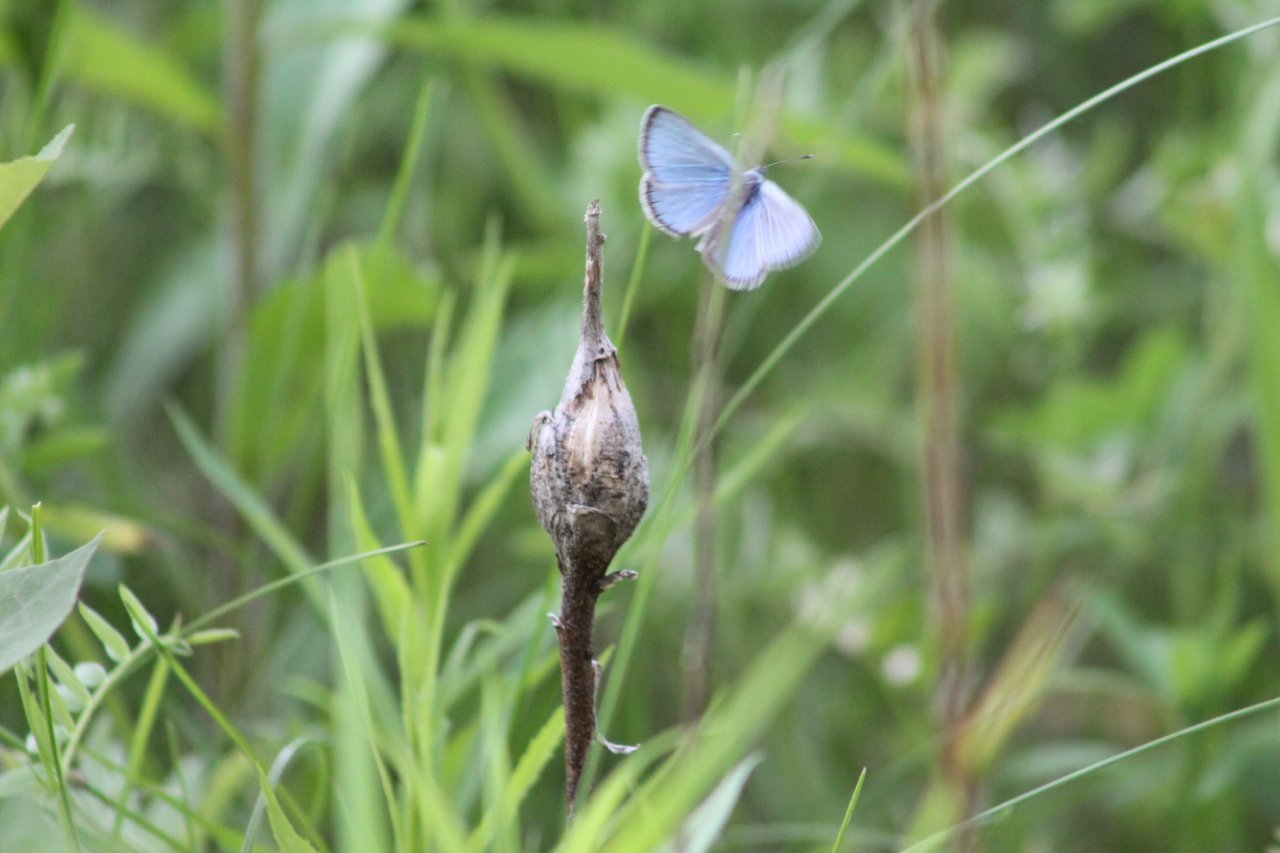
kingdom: Animalia
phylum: Arthropoda
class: Insecta
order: Lepidoptera
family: Lycaenidae
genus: Glaucopsyche
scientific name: Glaucopsyche lygdamus
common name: Silvery Blue
